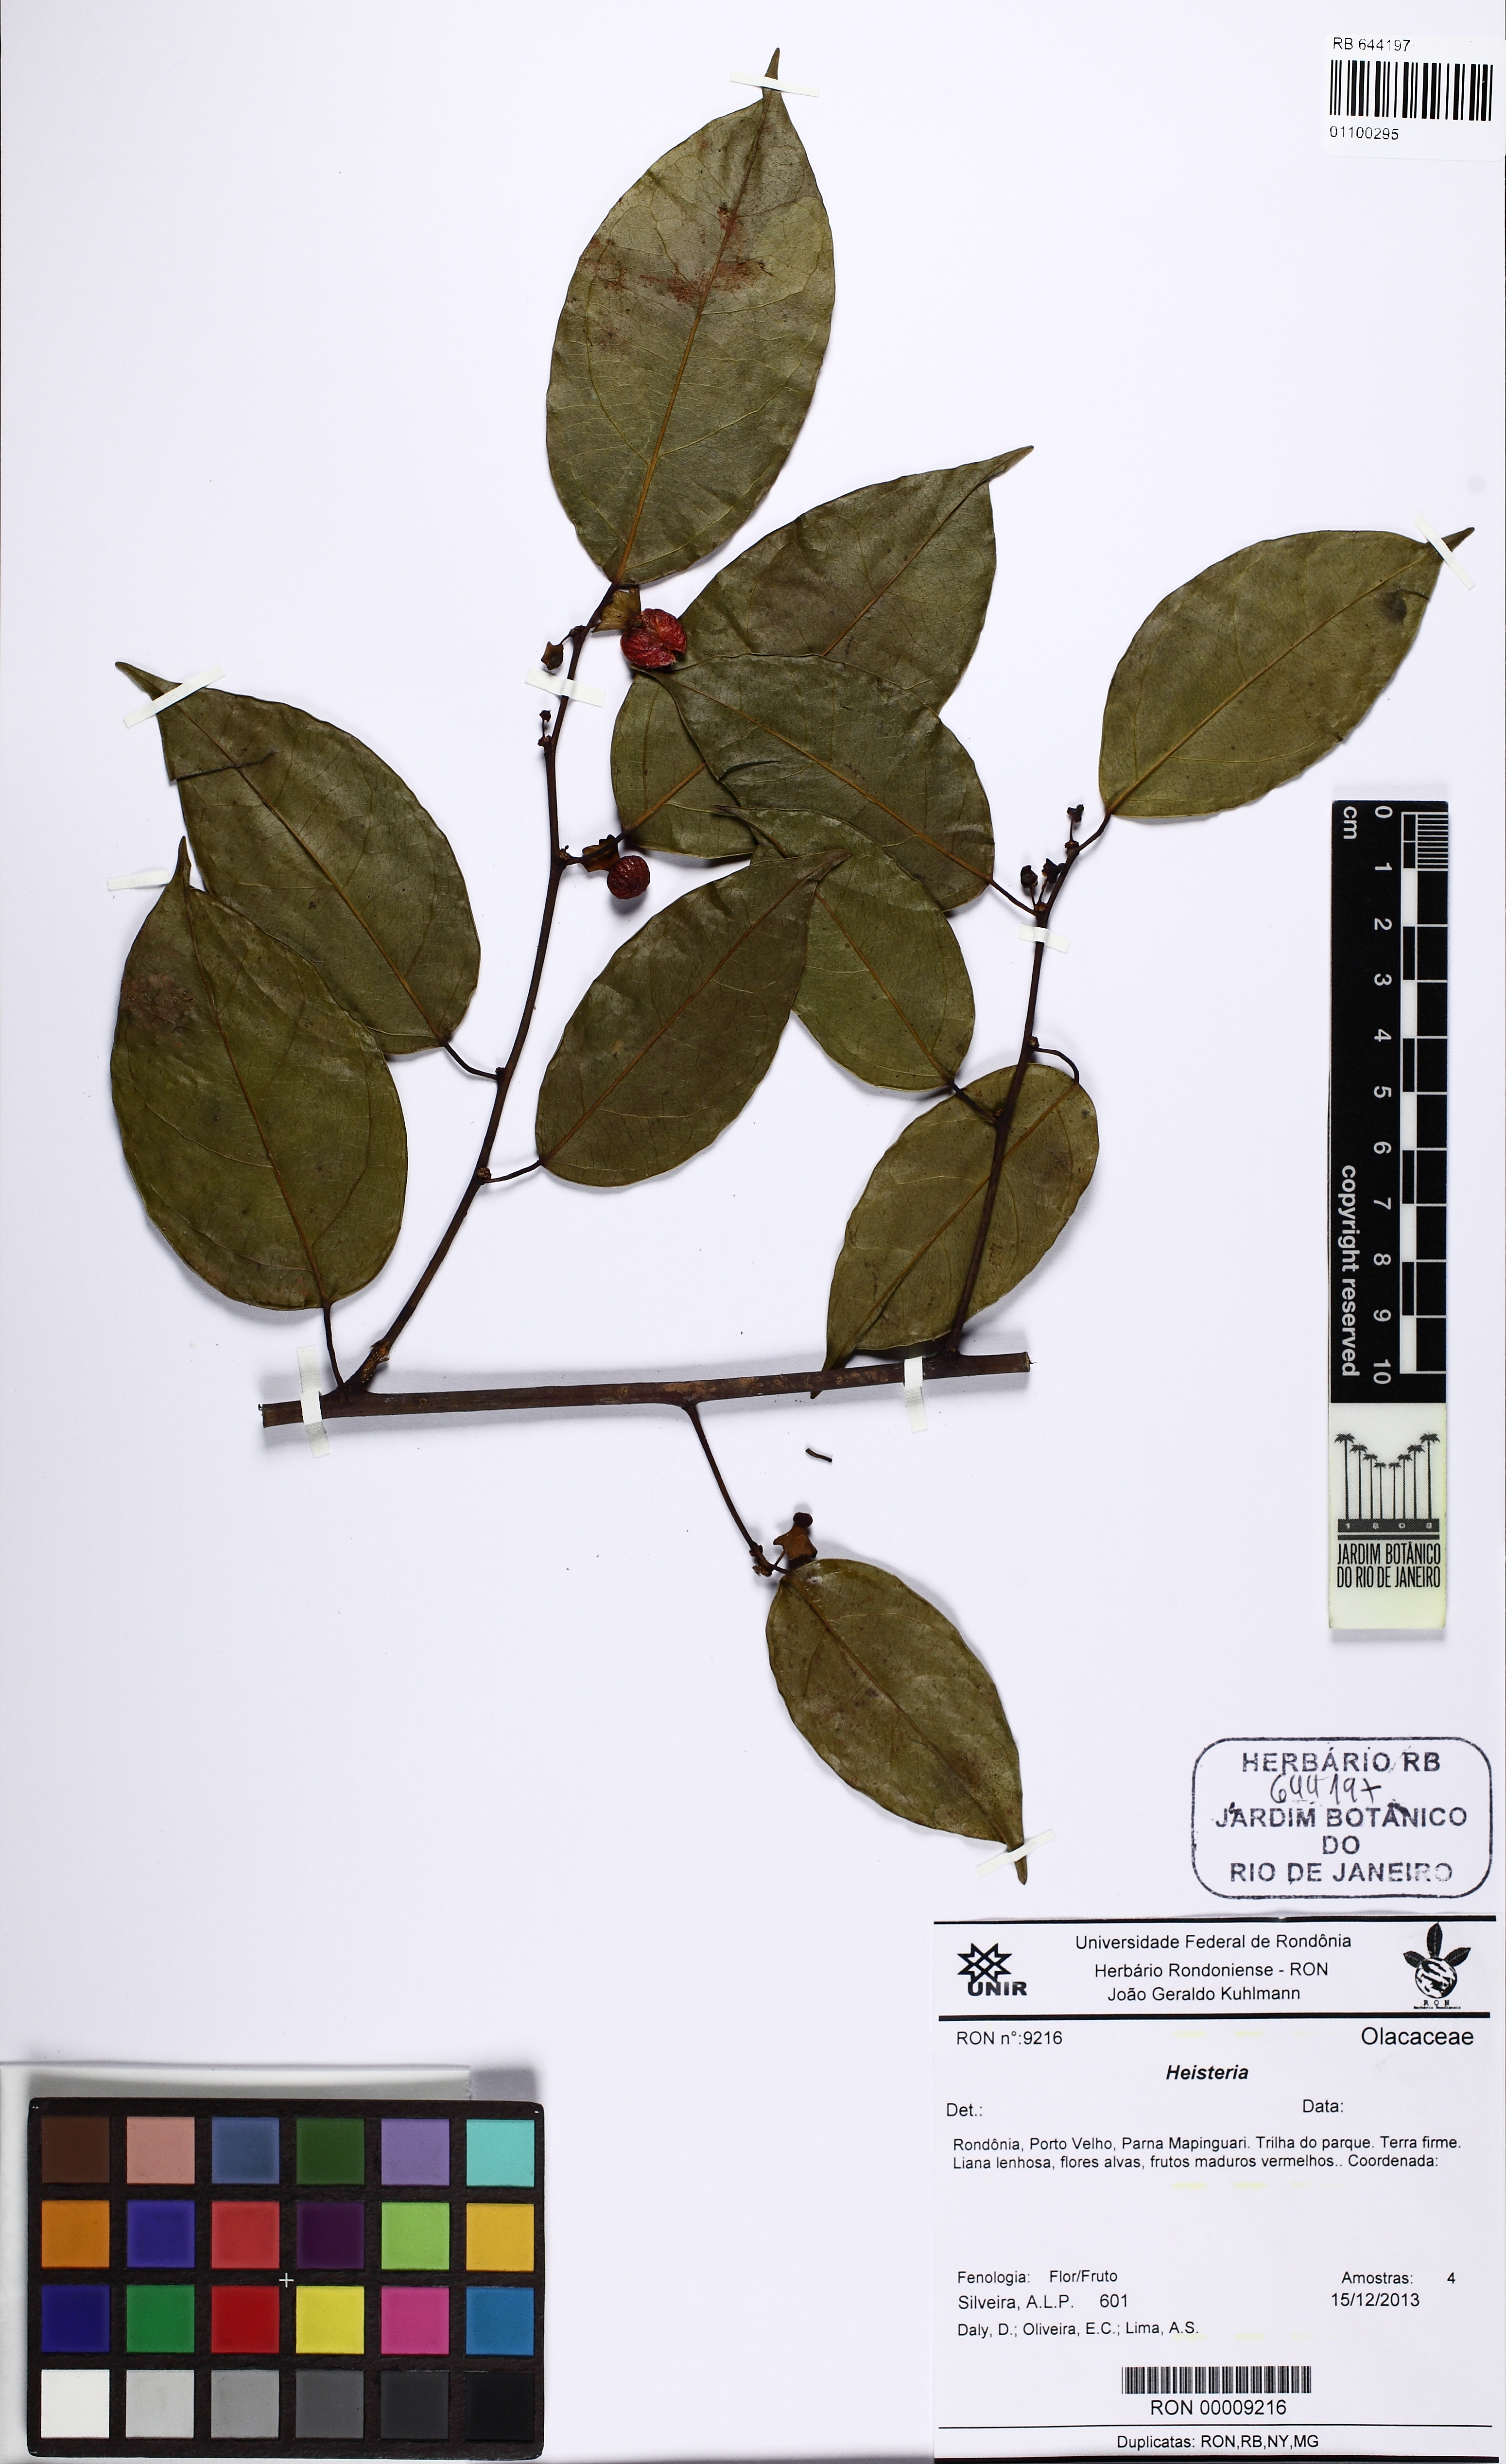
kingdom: Plantae
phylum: Tracheophyta
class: Magnoliopsida
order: Santalales
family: Erythropalaceae
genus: Heisteria
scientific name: Heisteria scandens
